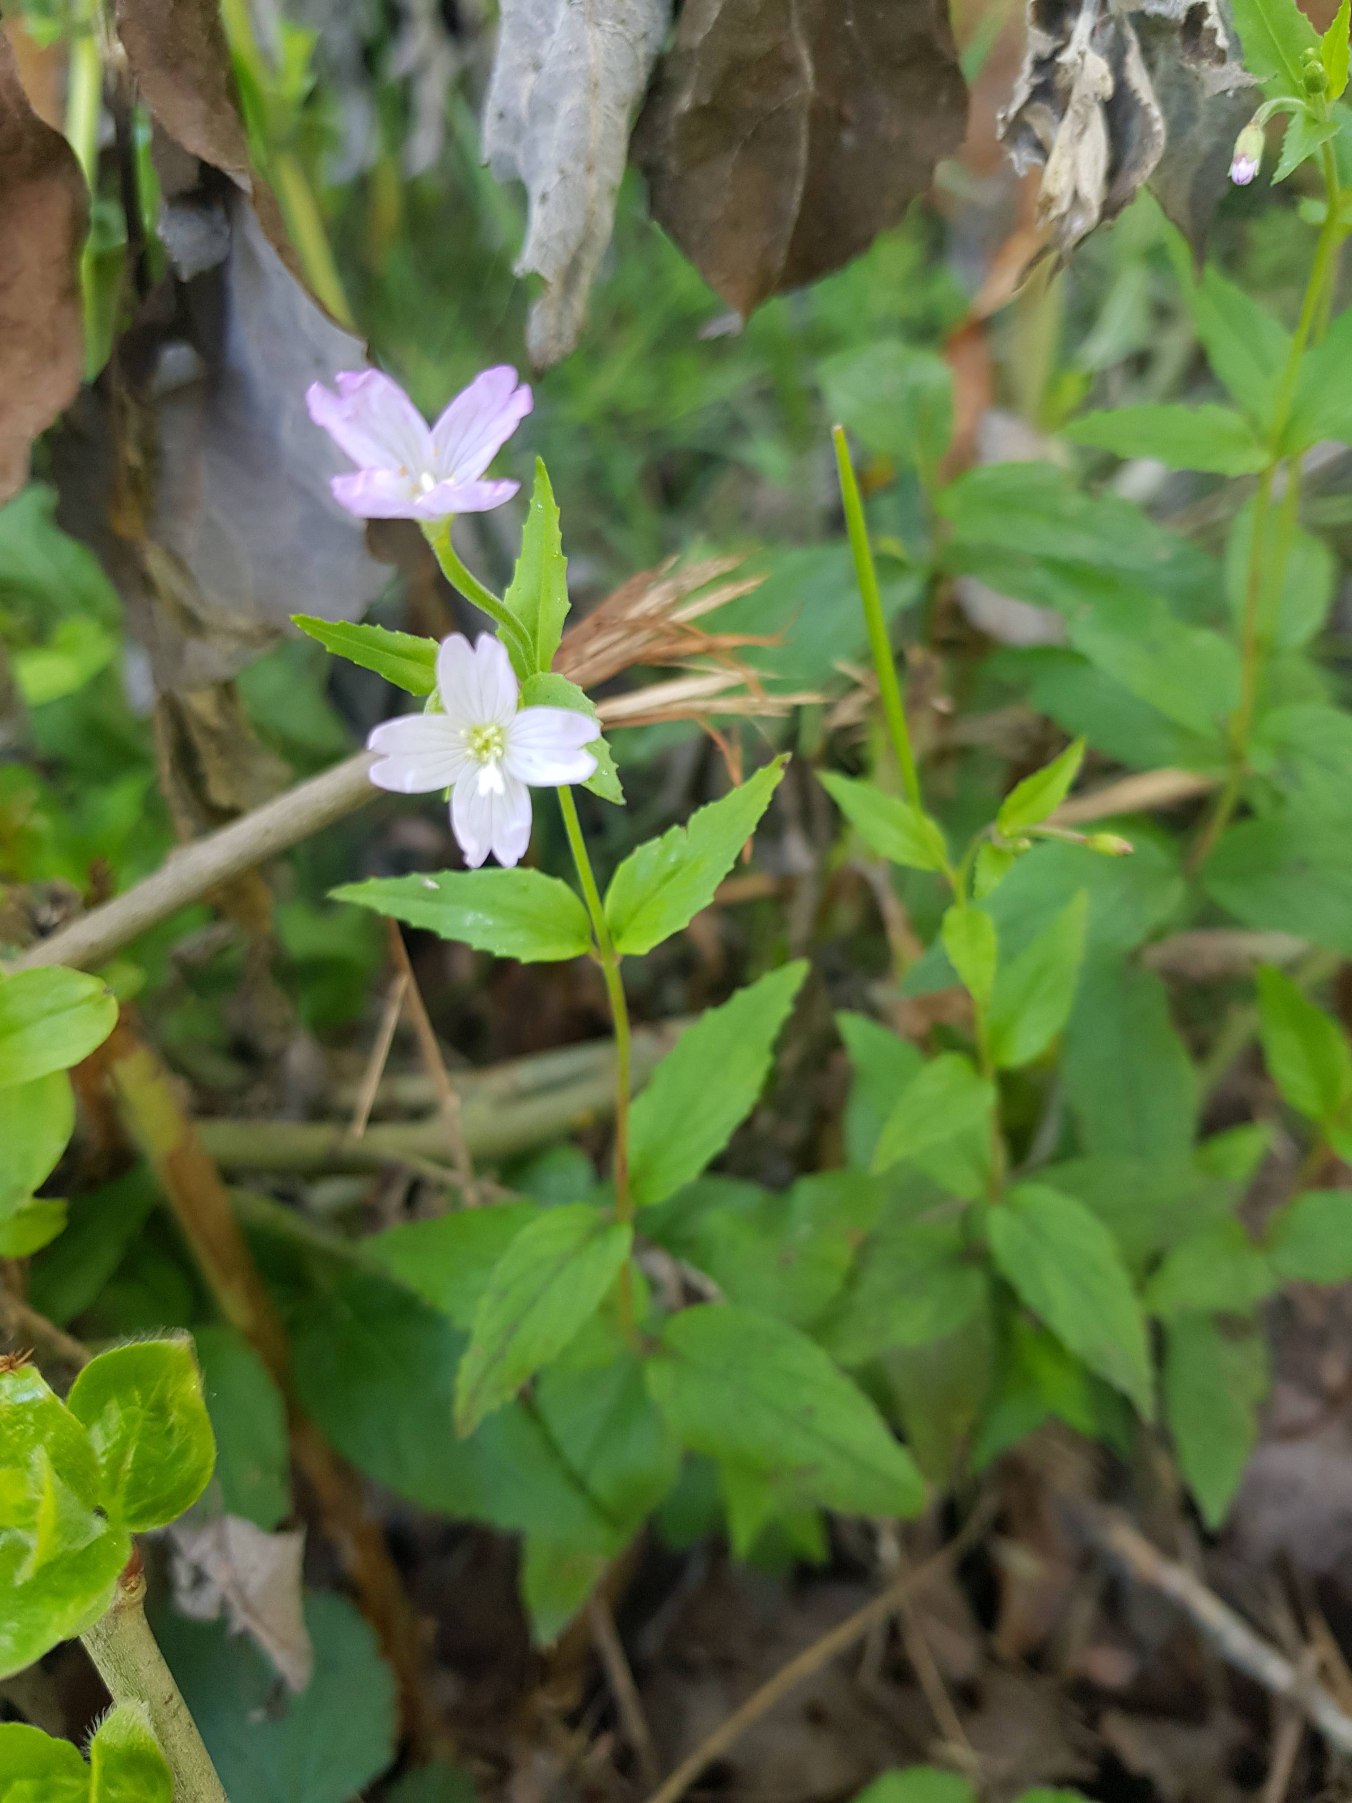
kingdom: Plantae
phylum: Tracheophyta
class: Magnoliopsida
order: Myrtales
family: Onagraceae
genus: Epilobium
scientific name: Epilobium montanum
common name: Glat dueurt
